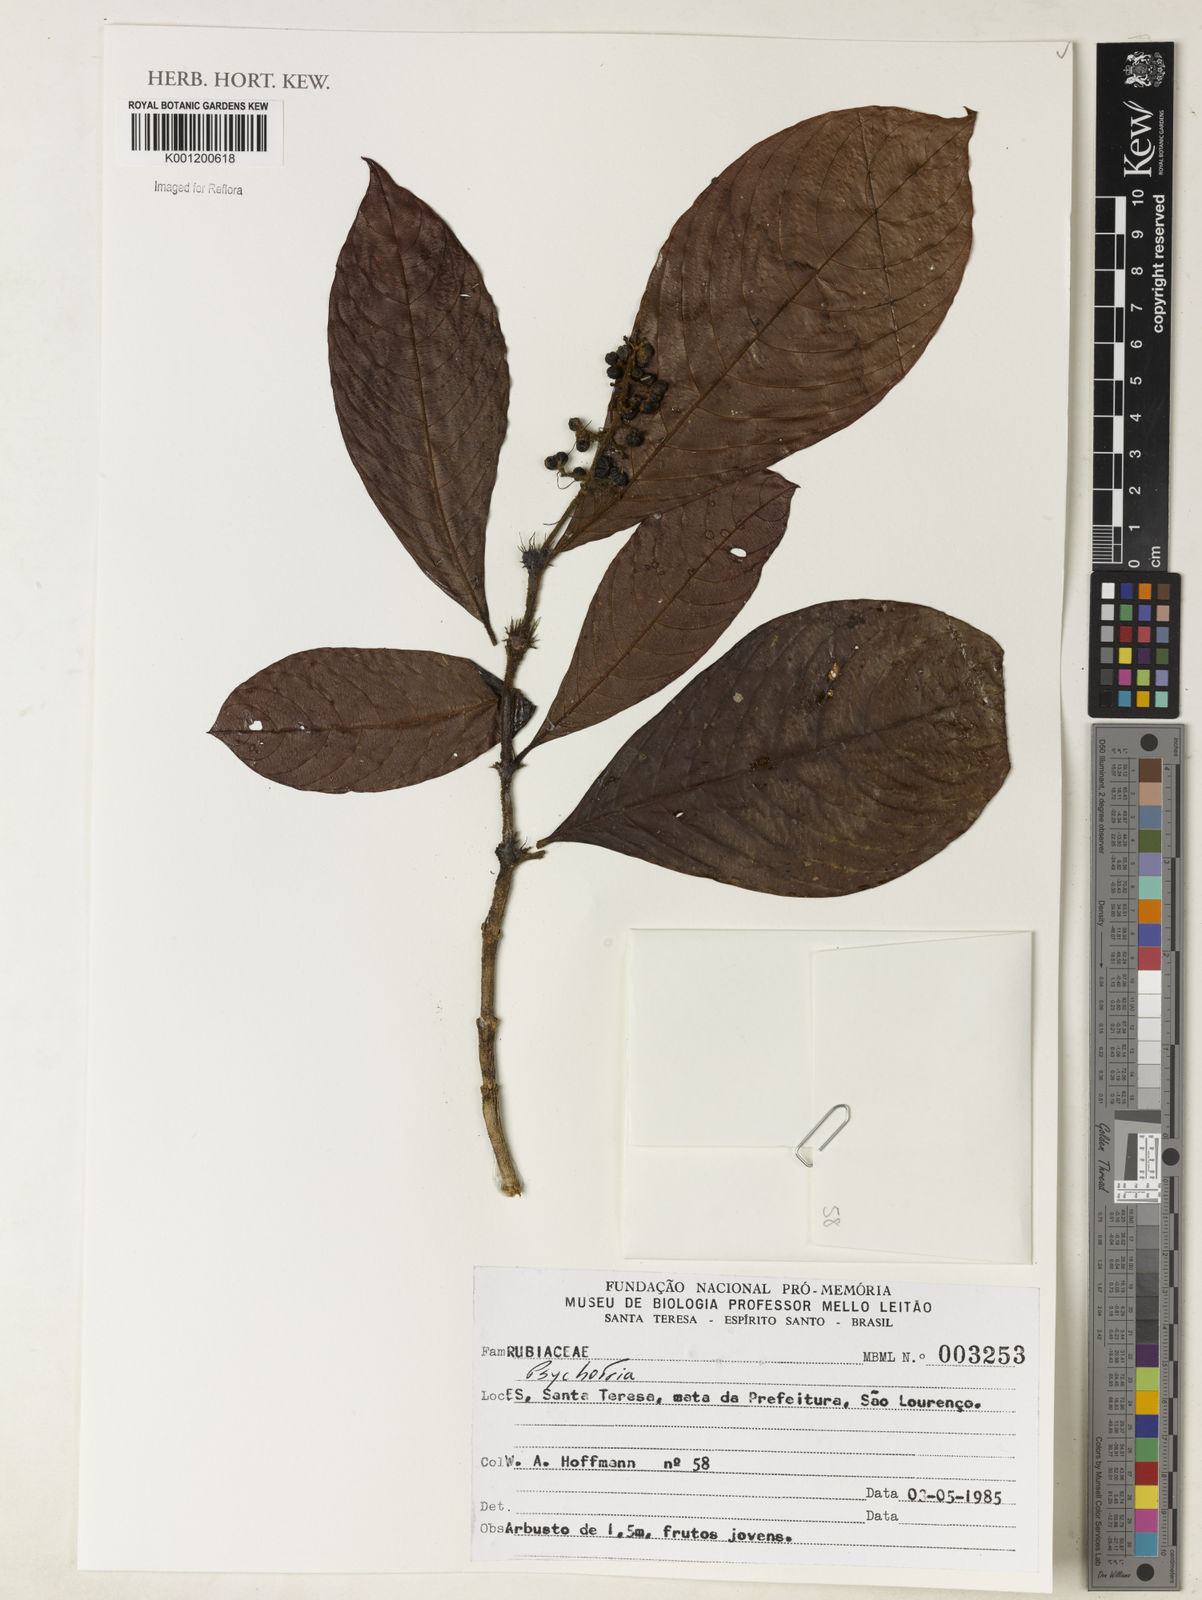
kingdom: Plantae
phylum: Tracheophyta
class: Magnoliopsida
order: Gentianales
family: Rubiaceae
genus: Psychotria
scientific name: Psychotria
